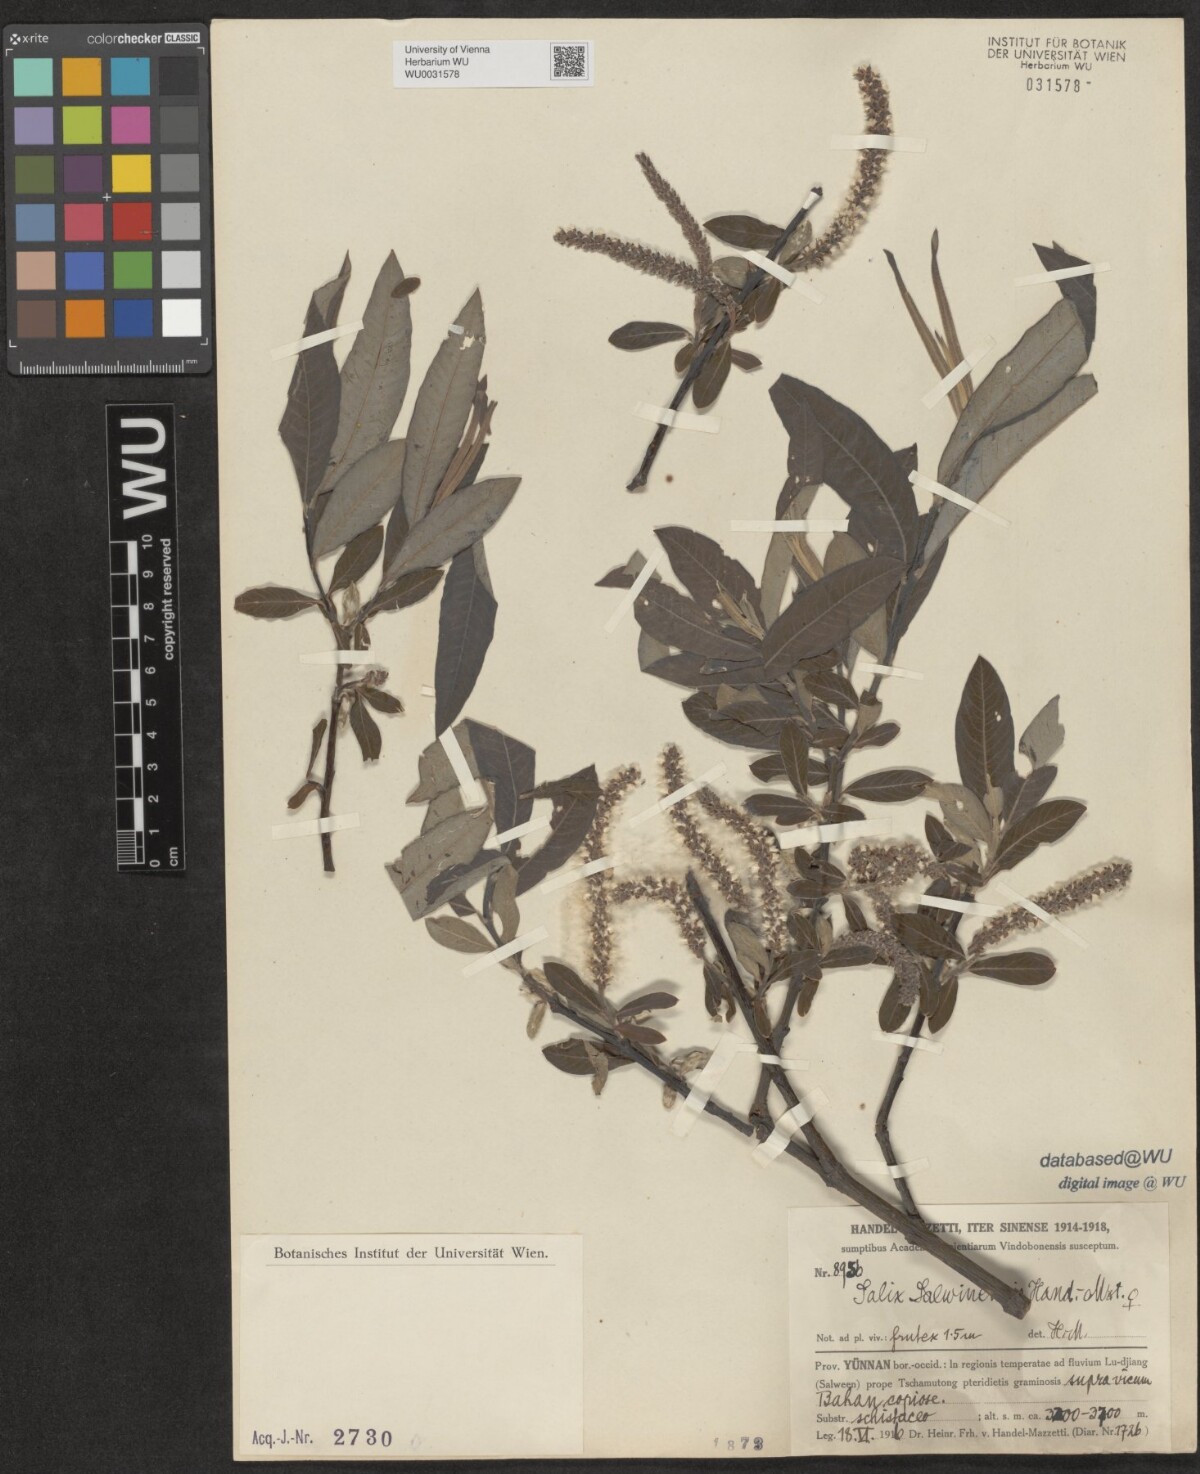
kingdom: Plantae
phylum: Tracheophyta
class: Magnoliopsida
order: Malpighiales
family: Salicaceae
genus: Salix
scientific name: Salix salwinensis
